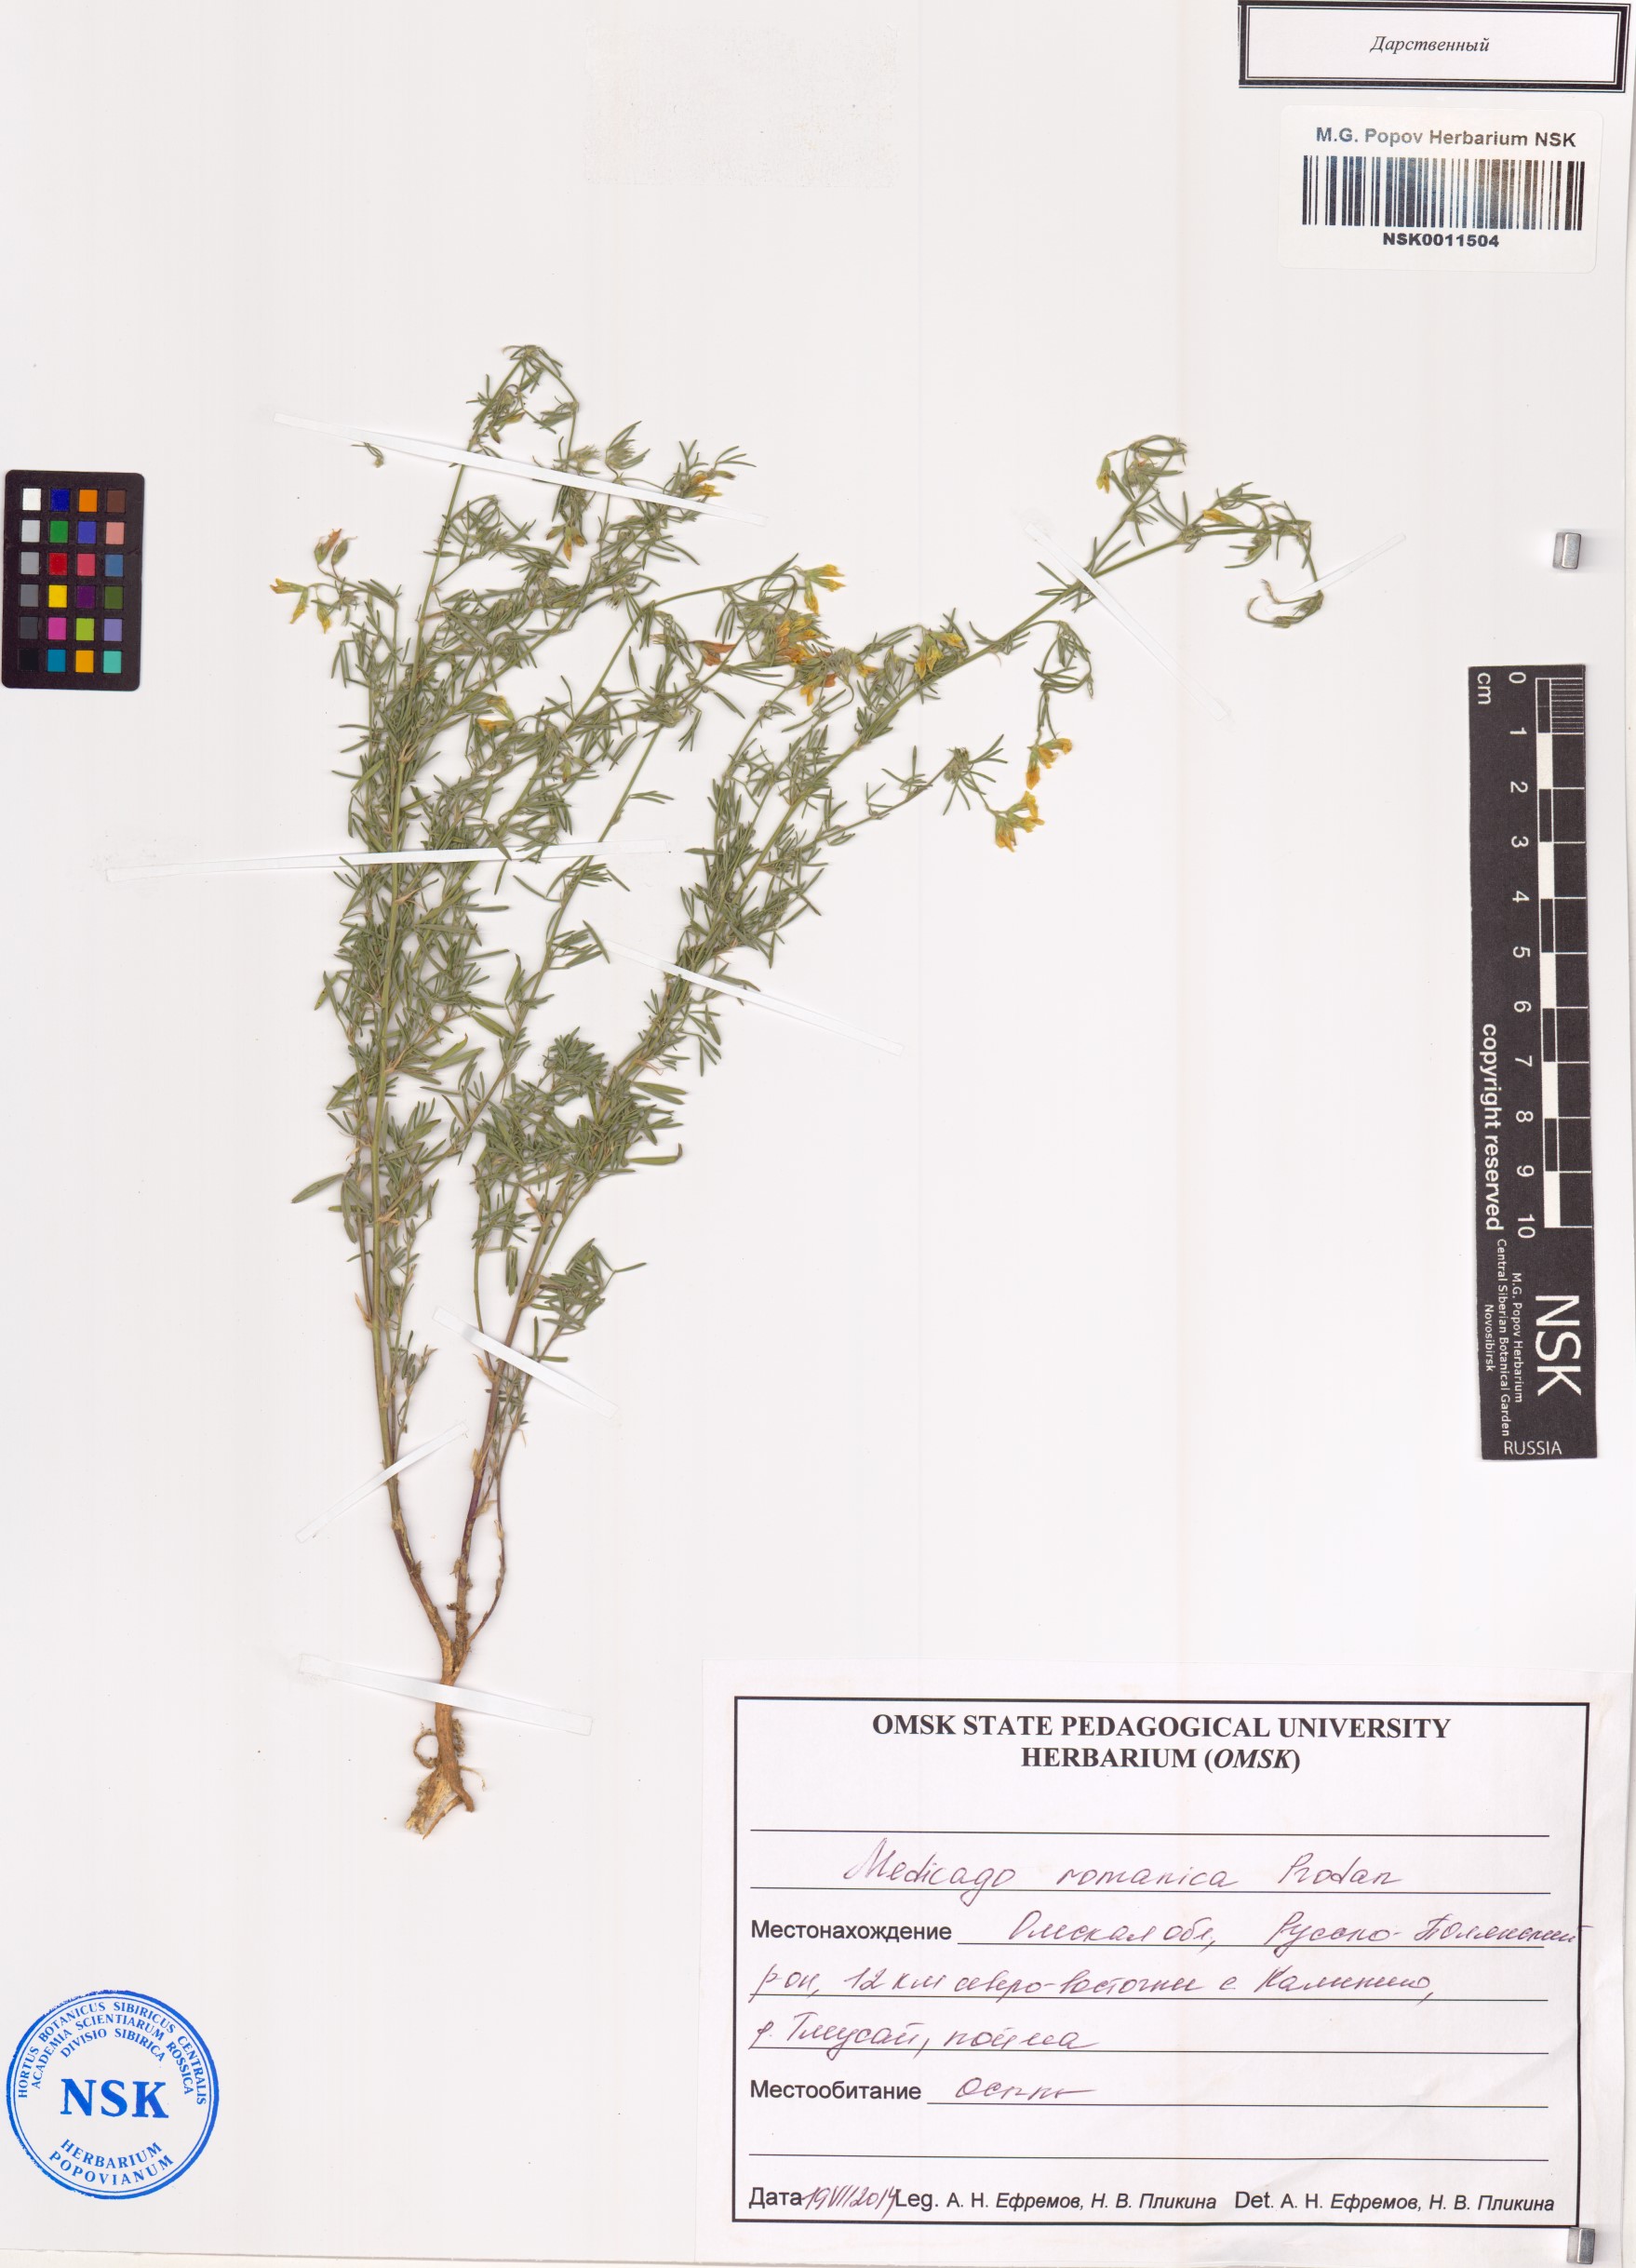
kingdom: Plantae
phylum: Tracheophyta
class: Magnoliopsida
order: Fabales
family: Fabaceae
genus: Medicago
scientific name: Medicago falcata
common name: Sickle medick
